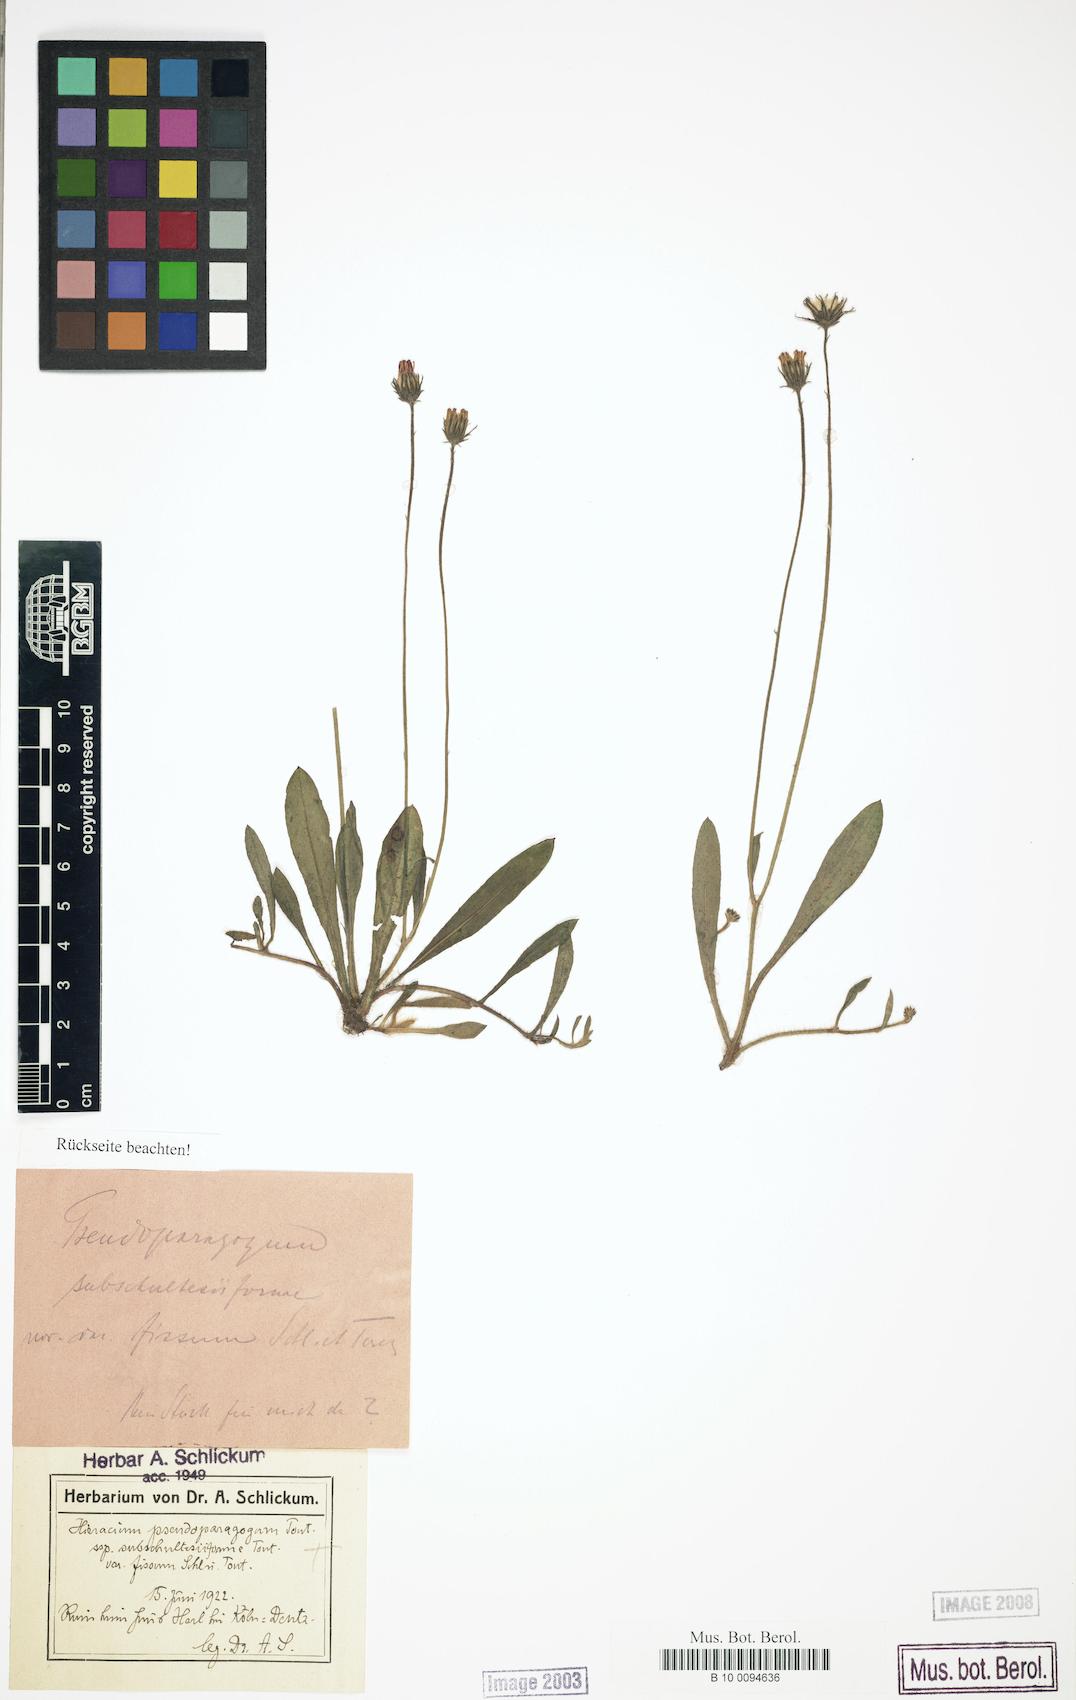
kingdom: Plantae
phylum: Tracheophyta
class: Magnoliopsida
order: Asterales
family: Asteraceae
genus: Pilosella
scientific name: Pilosella pseudoparagoga
